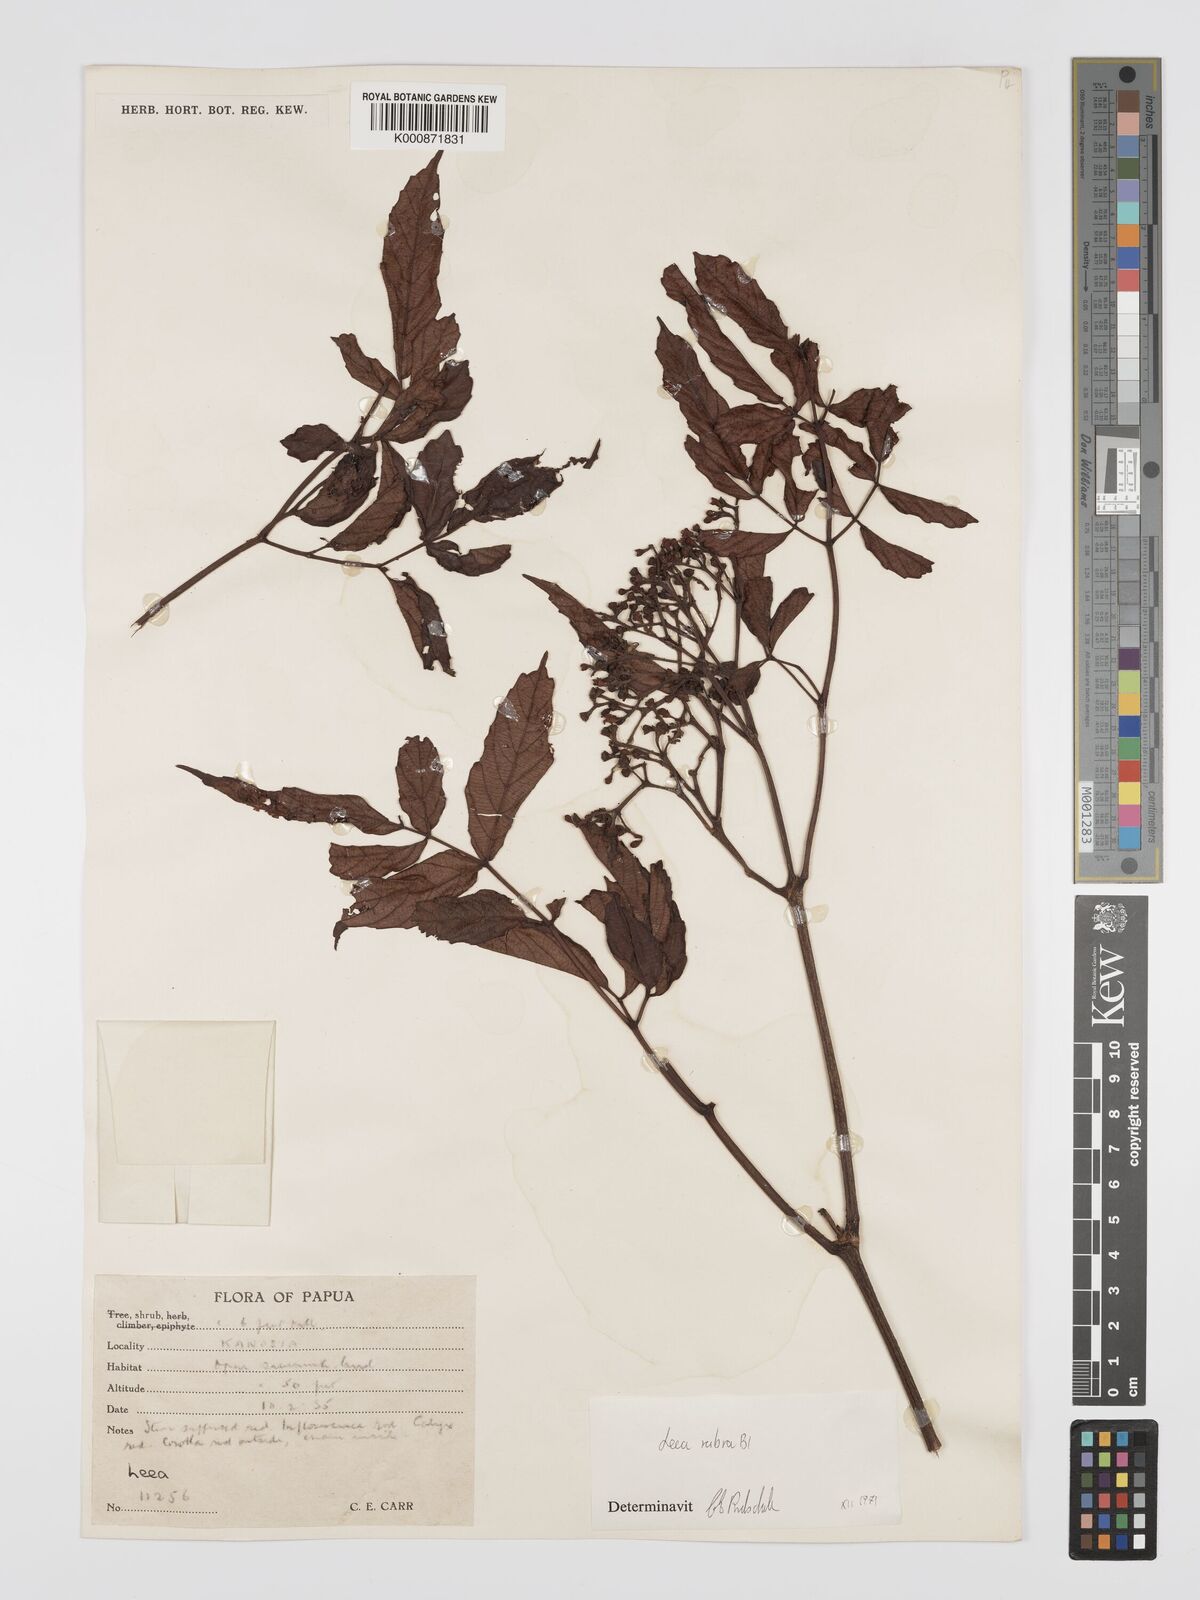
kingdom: Plantae
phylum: Tracheophyta
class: Magnoliopsida
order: Vitales
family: Vitaceae
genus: Leea
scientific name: Leea
